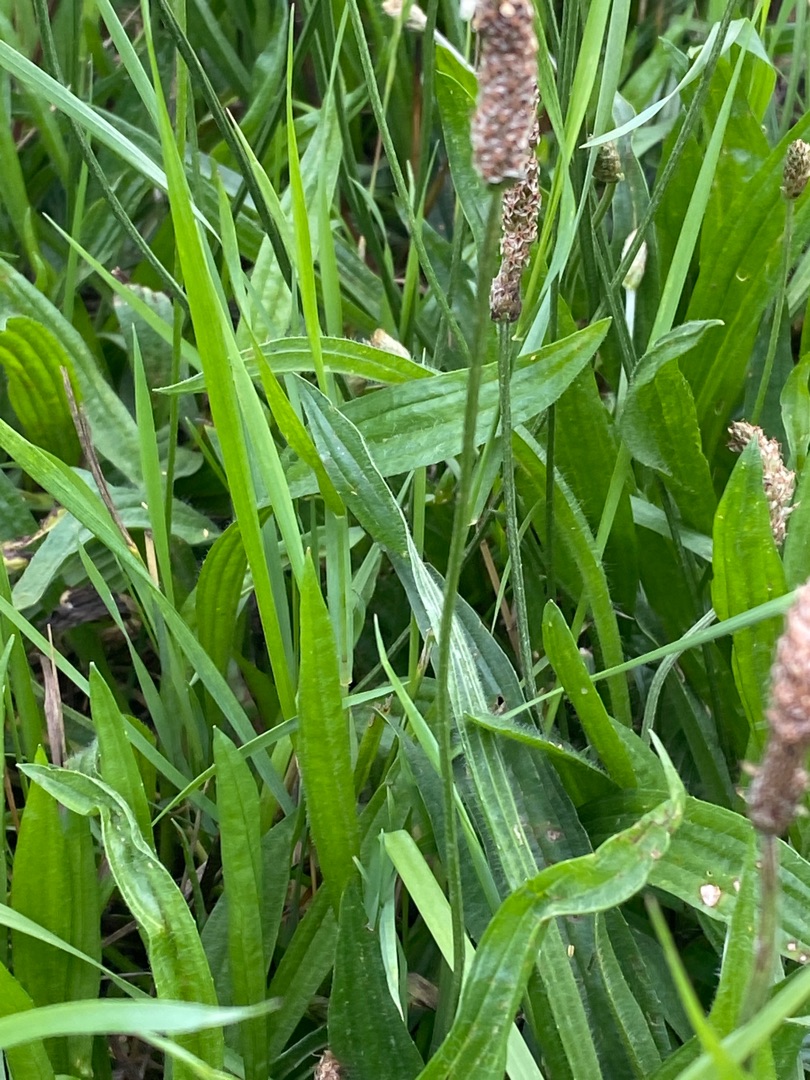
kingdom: Plantae
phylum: Tracheophyta
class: Magnoliopsida
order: Lamiales
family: Plantaginaceae
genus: Plantago
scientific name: Plantago lanceolata
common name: Lancet-vejbred
